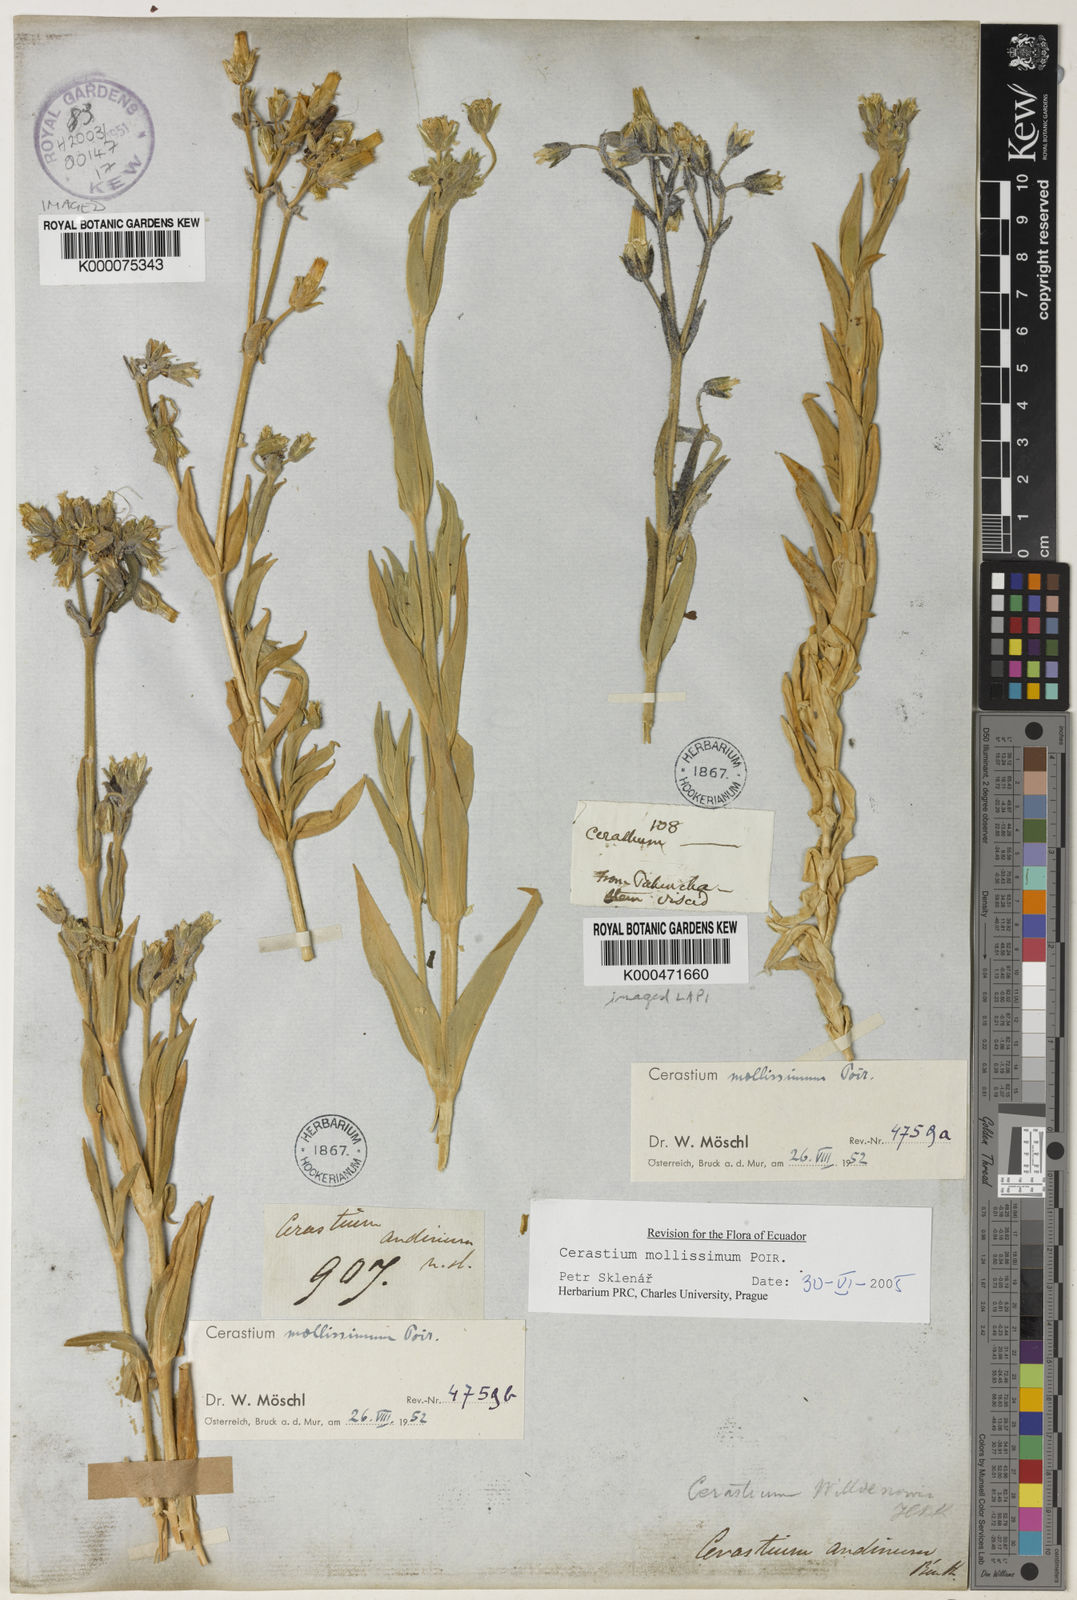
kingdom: Plantae
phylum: Tracheophyta
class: Magnoliopsida
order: Caryophyllales
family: Caryophyllaceae
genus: Cerastium
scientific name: Cerastium mollissimum
